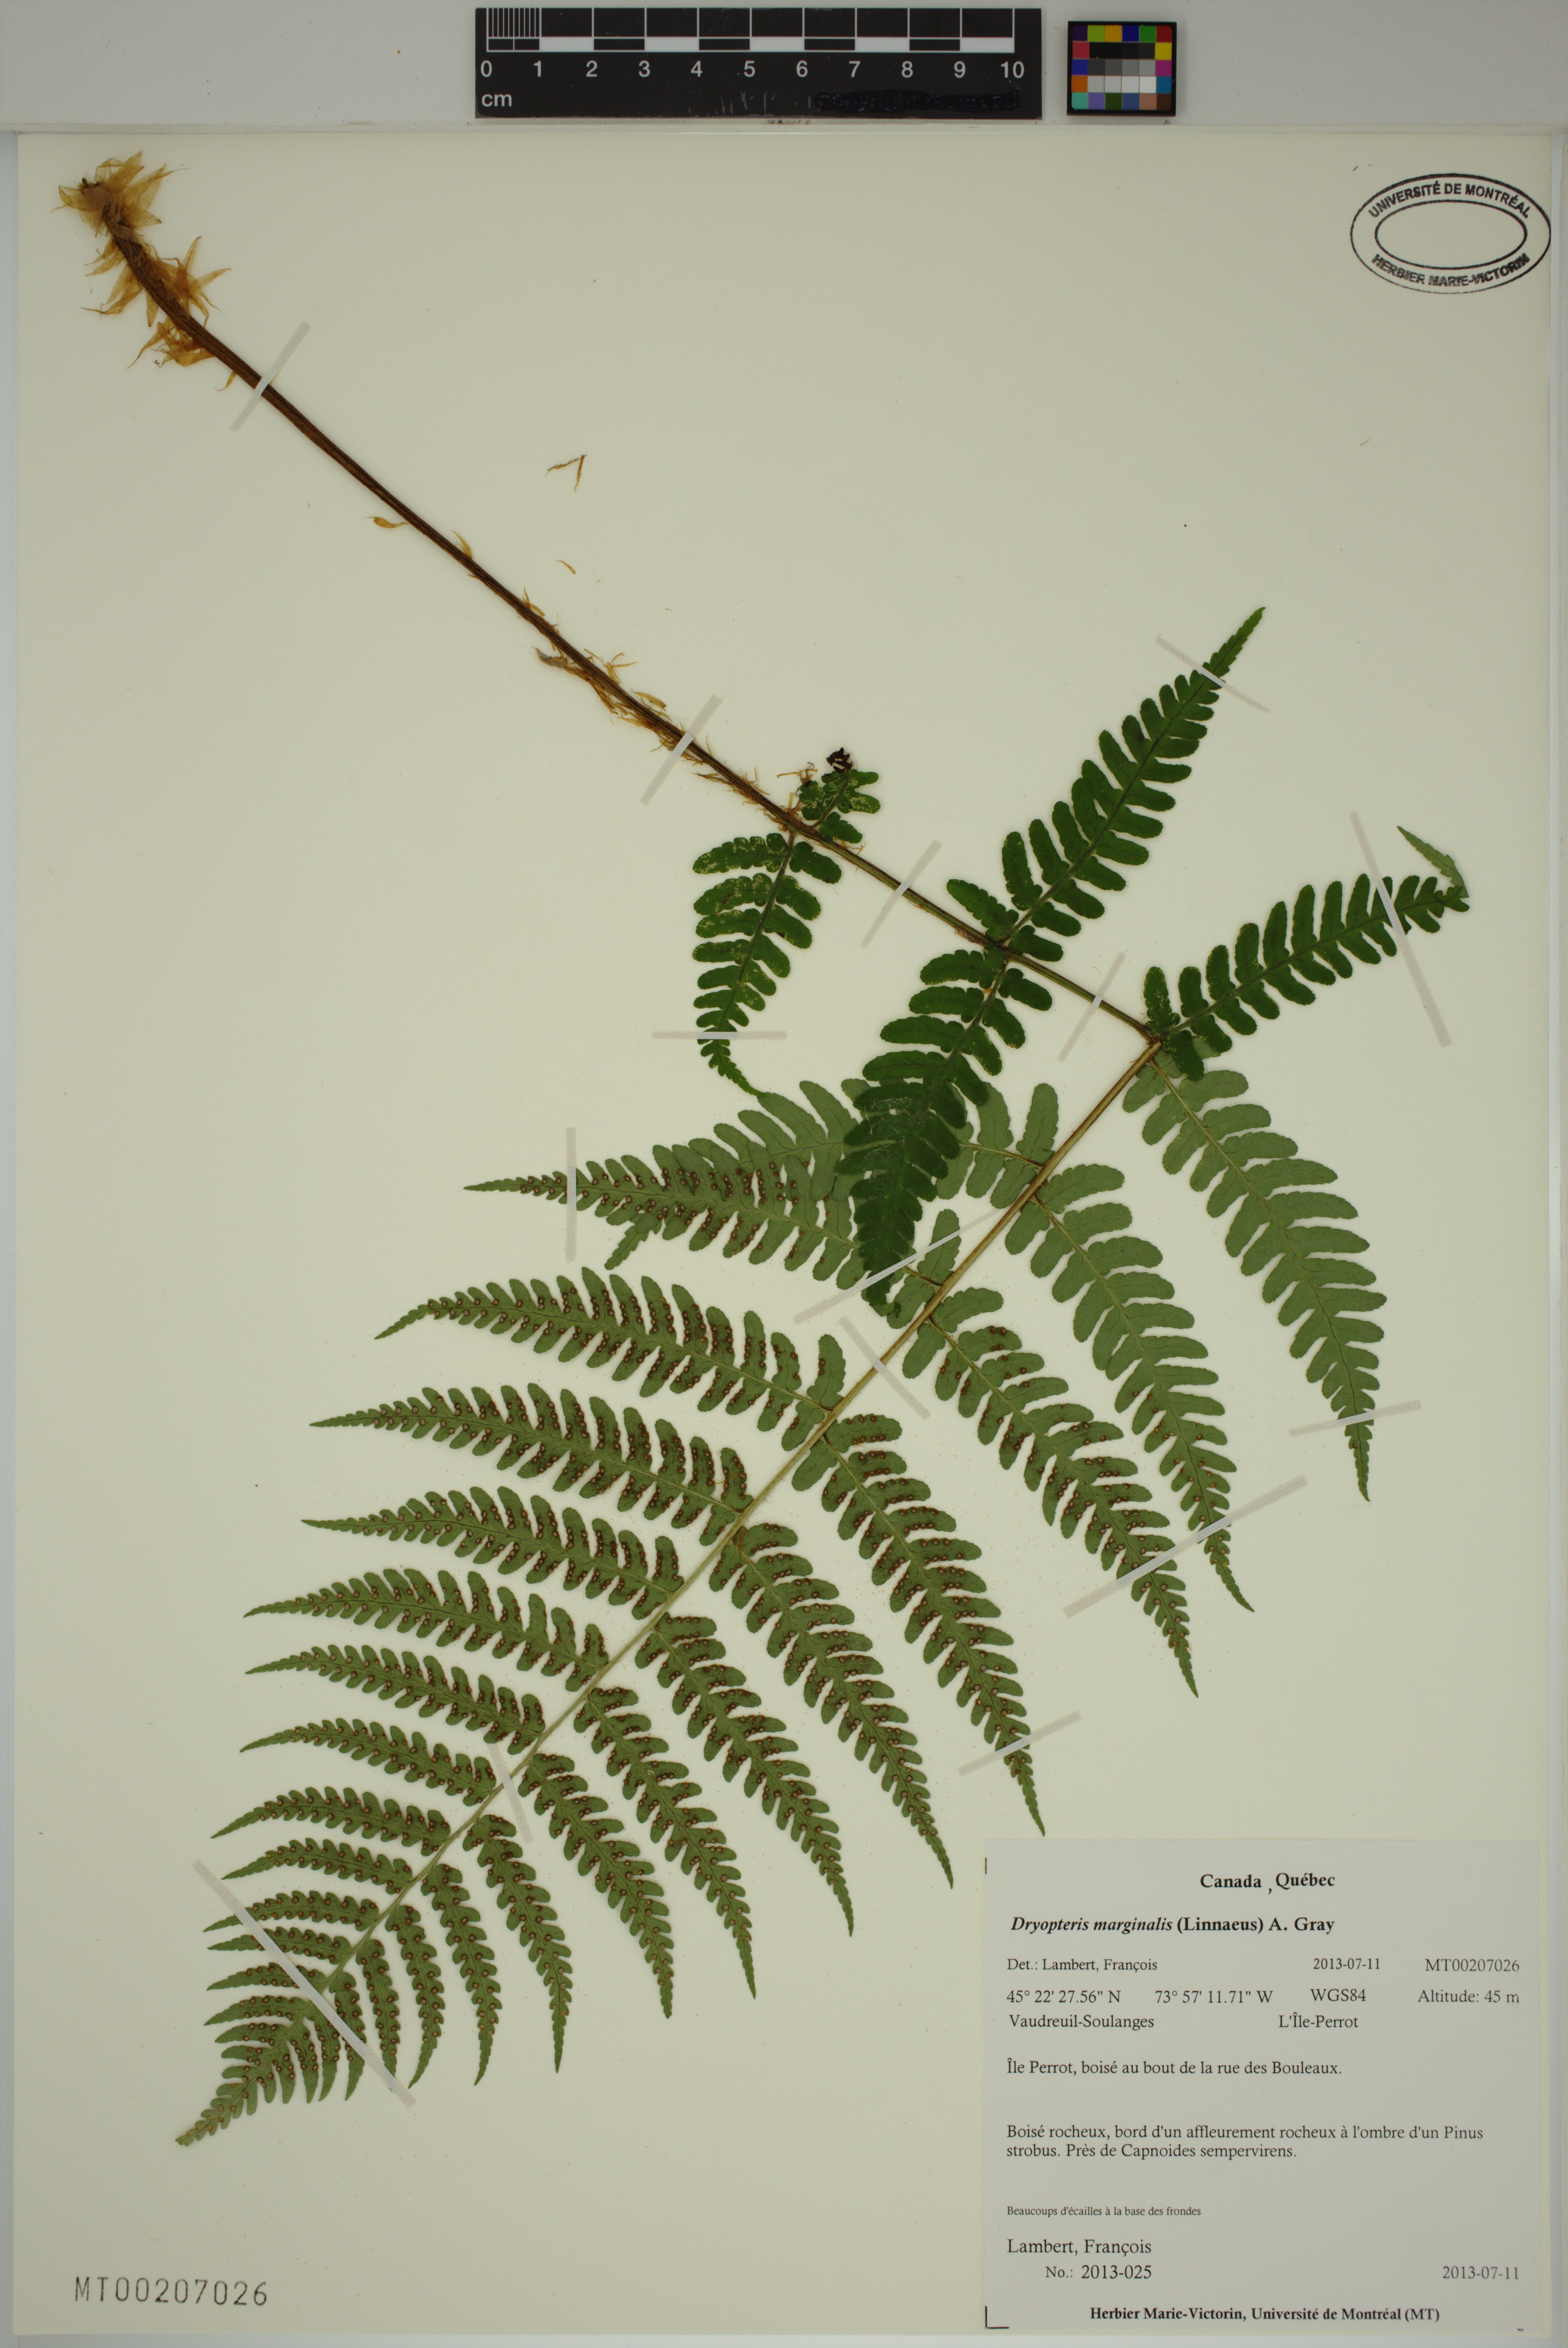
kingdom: Plantae
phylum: Tracheophyta
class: Polypodiopsida
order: Polypodiales
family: Dryopteridaceae
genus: Dryopteris
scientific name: Dryopteris marginalis
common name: Marginal wood fern
